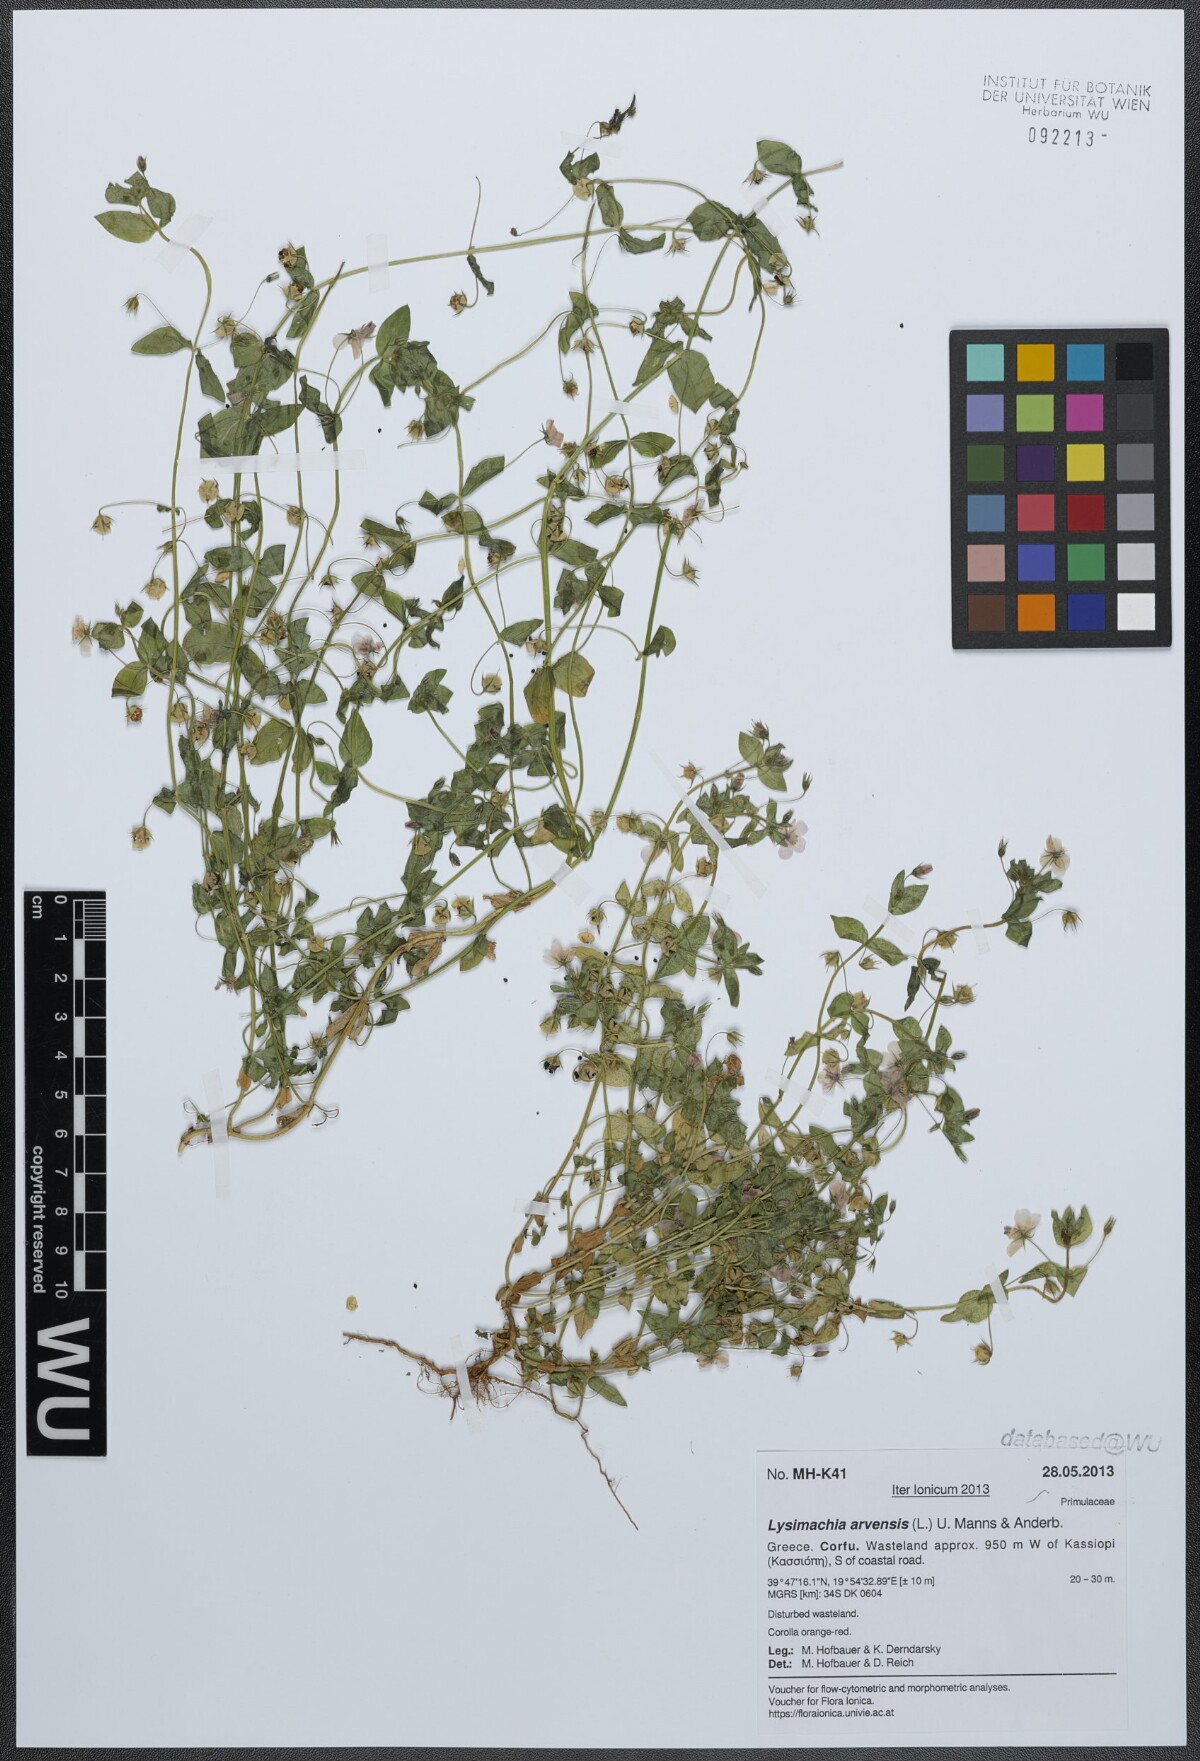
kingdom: Plantae
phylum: Tracheophyta
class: Magnoliopsida
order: Ericales
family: Primulaceae
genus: Lysimachia
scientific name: Lysimachia arvensis
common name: Scarlet pimpernel
